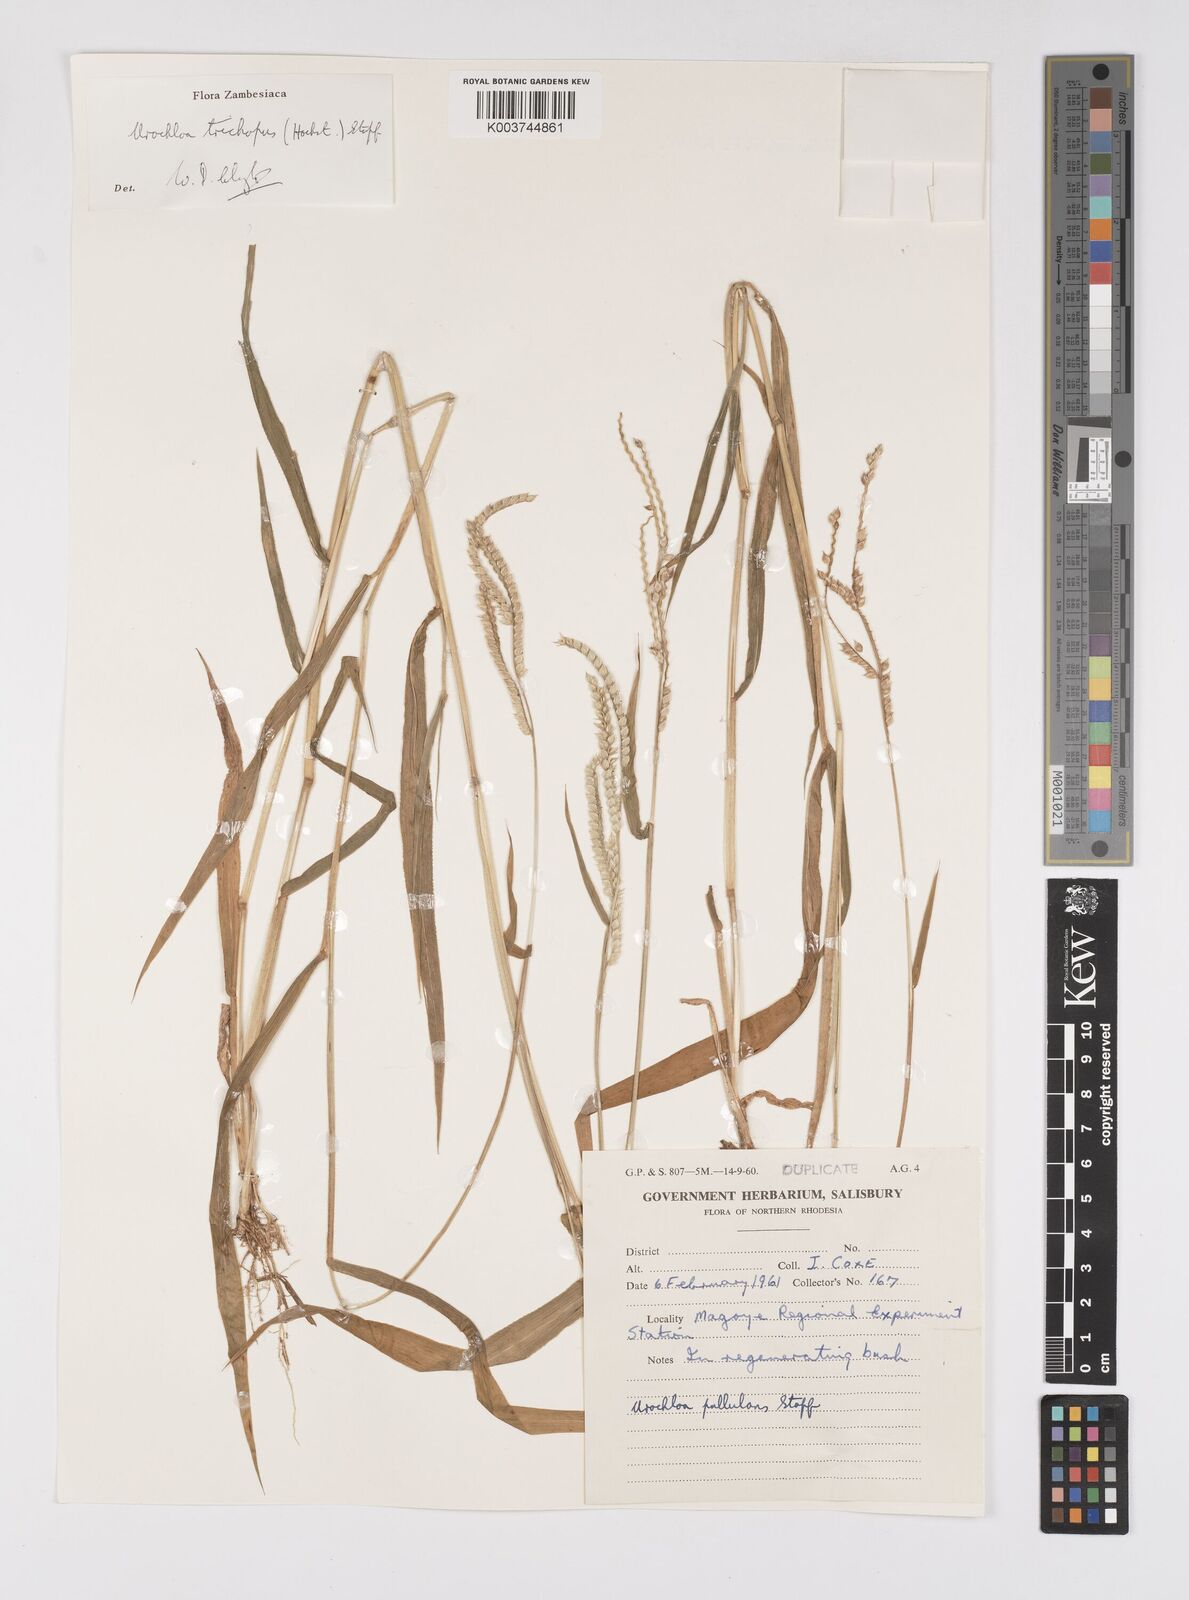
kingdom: Plantae
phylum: Tracheophyta
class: Liliopsida
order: Poales
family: Poaceae
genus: Urochloa
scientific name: Urochloa trichopus
